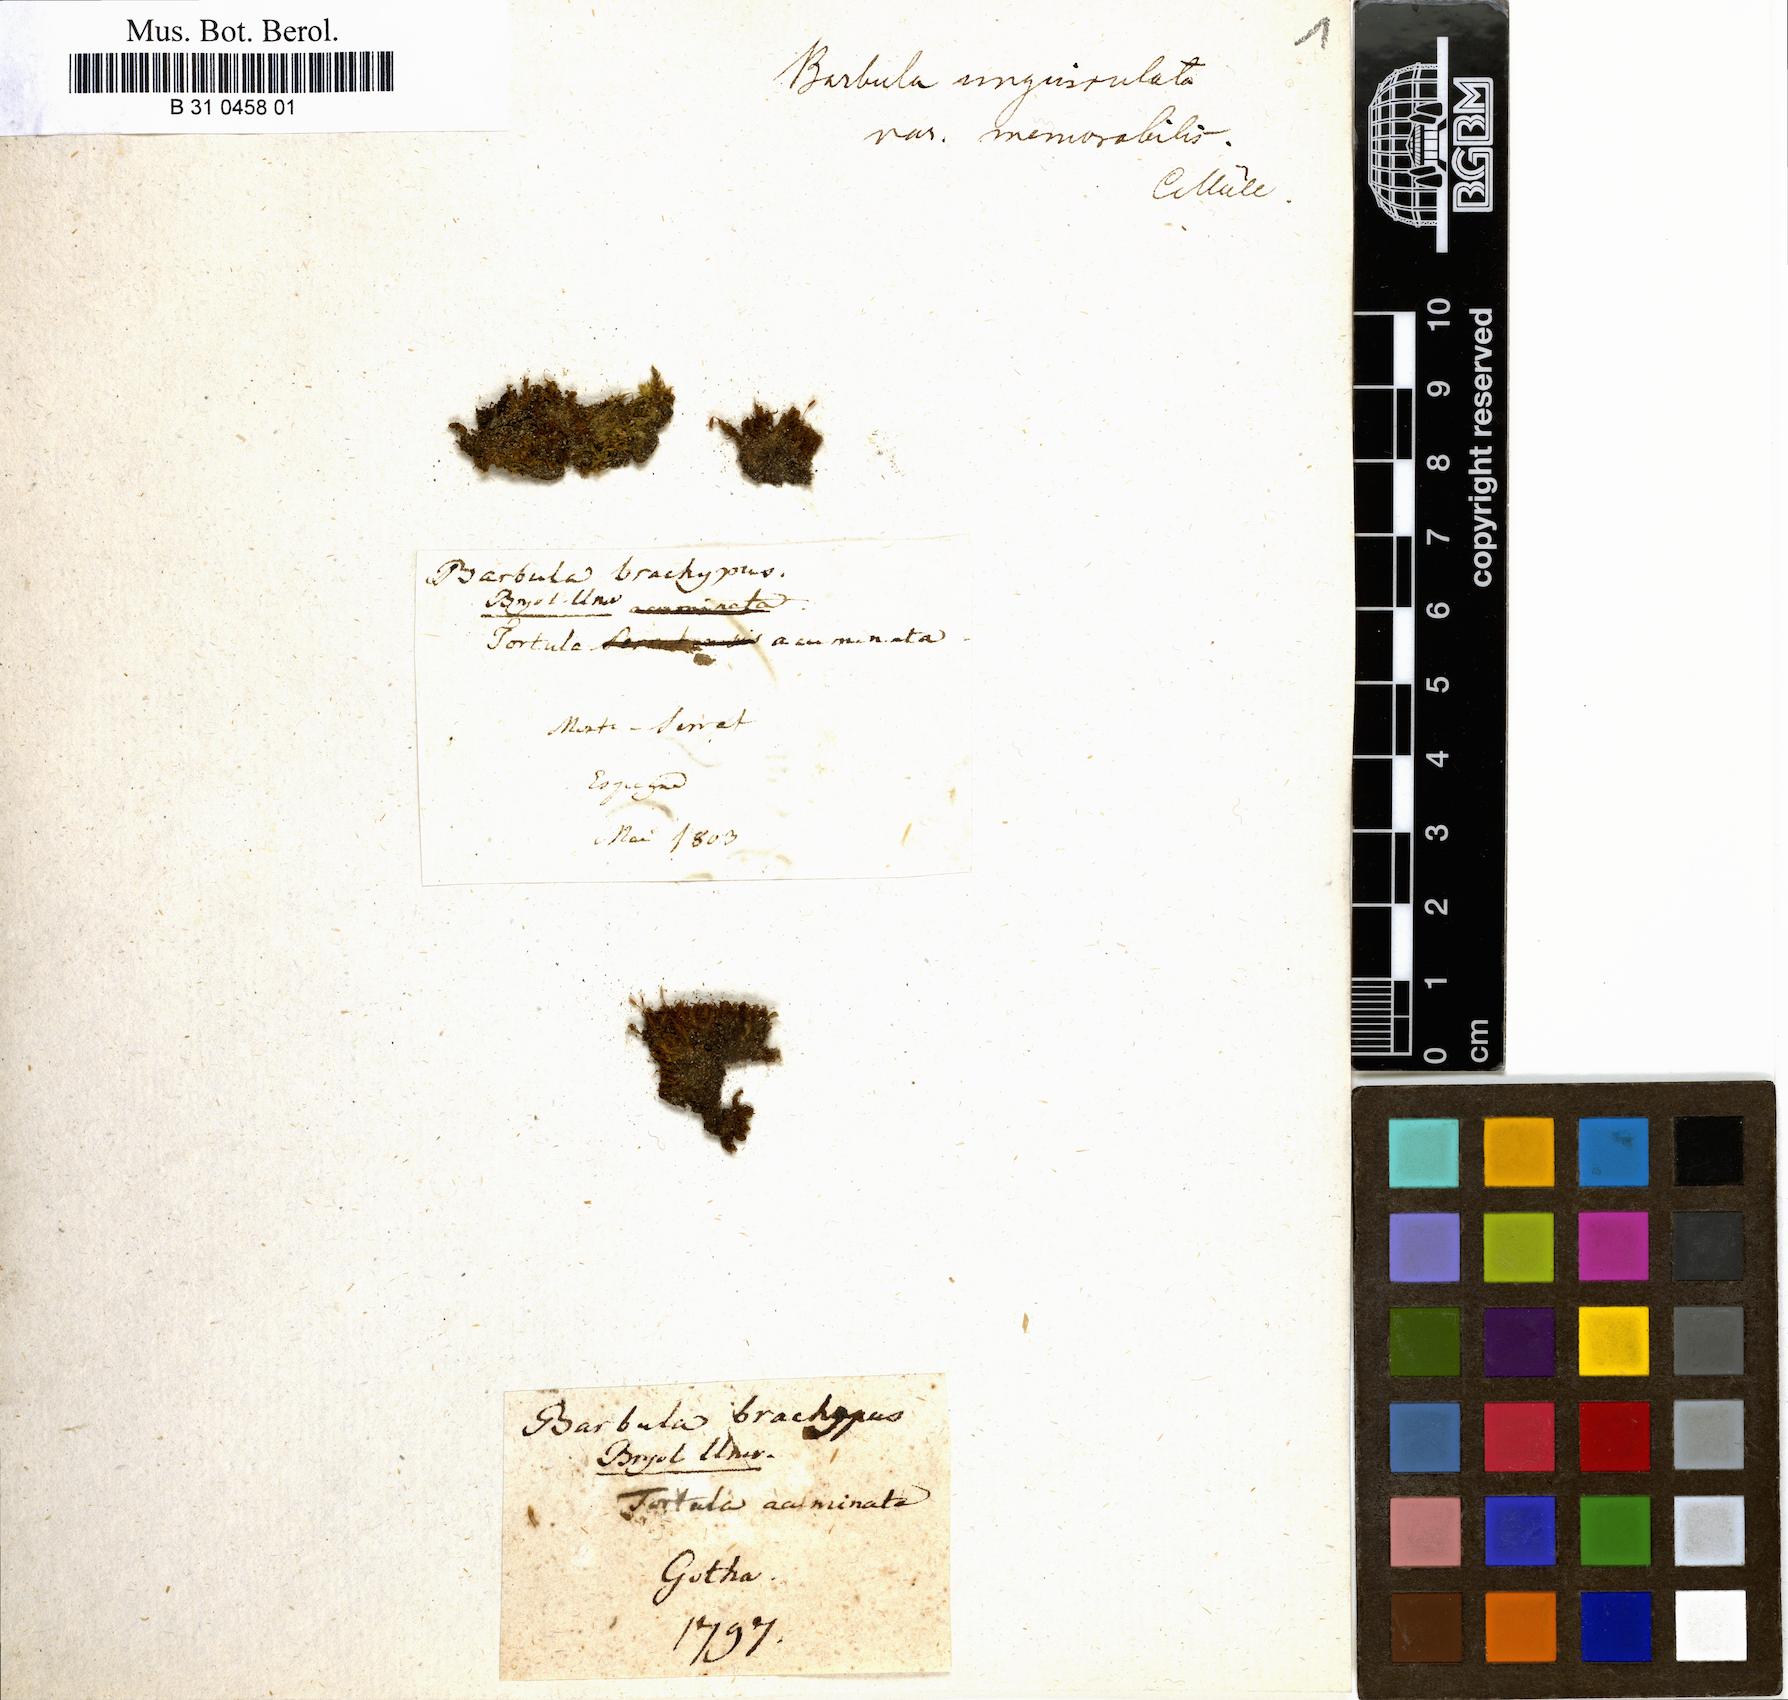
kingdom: Plantae
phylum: Bryophyta
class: Bryopsida
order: Pottiales
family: Pottiaceae
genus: Barbula
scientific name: Barbula unguiculata
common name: Prickly beard moss
